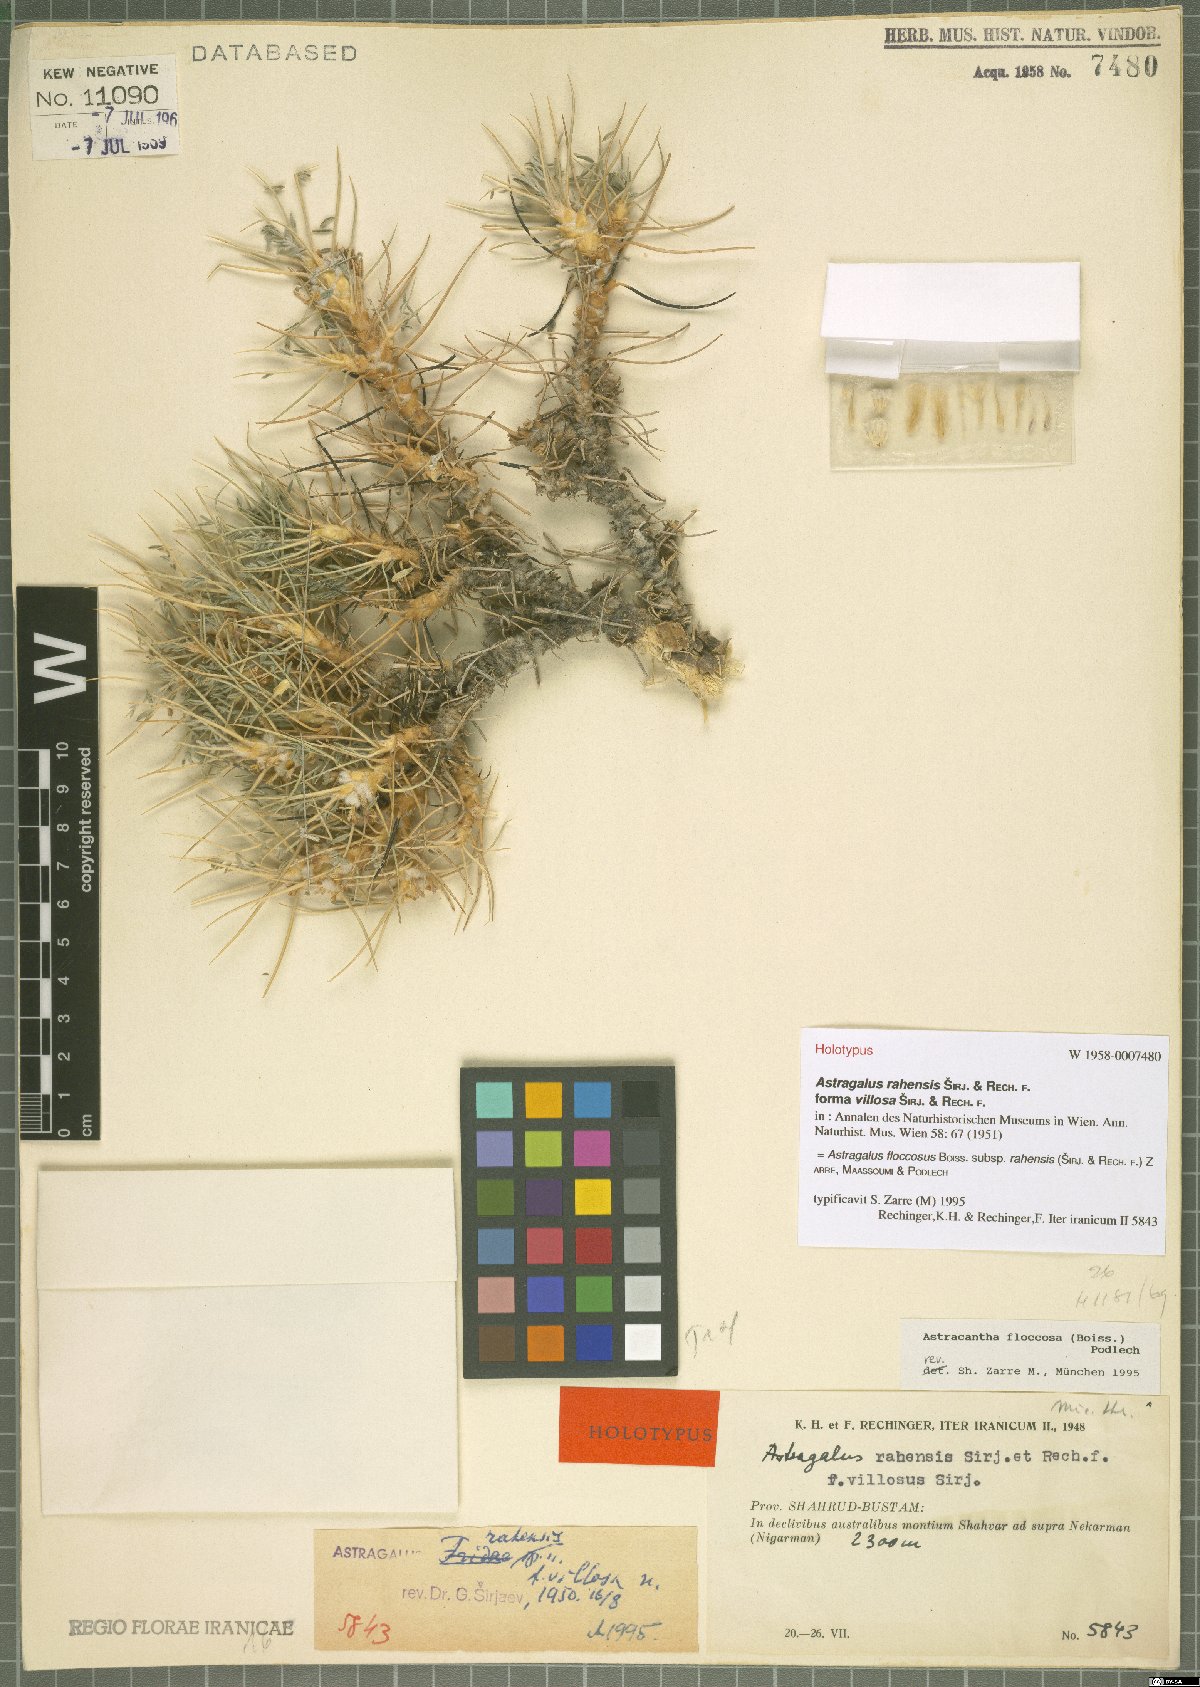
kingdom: Plantae
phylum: Tracheophyta
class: Magnoliopsida
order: Fabales
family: Fabaceae
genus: Astragalus
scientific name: Astragalus floccosus
